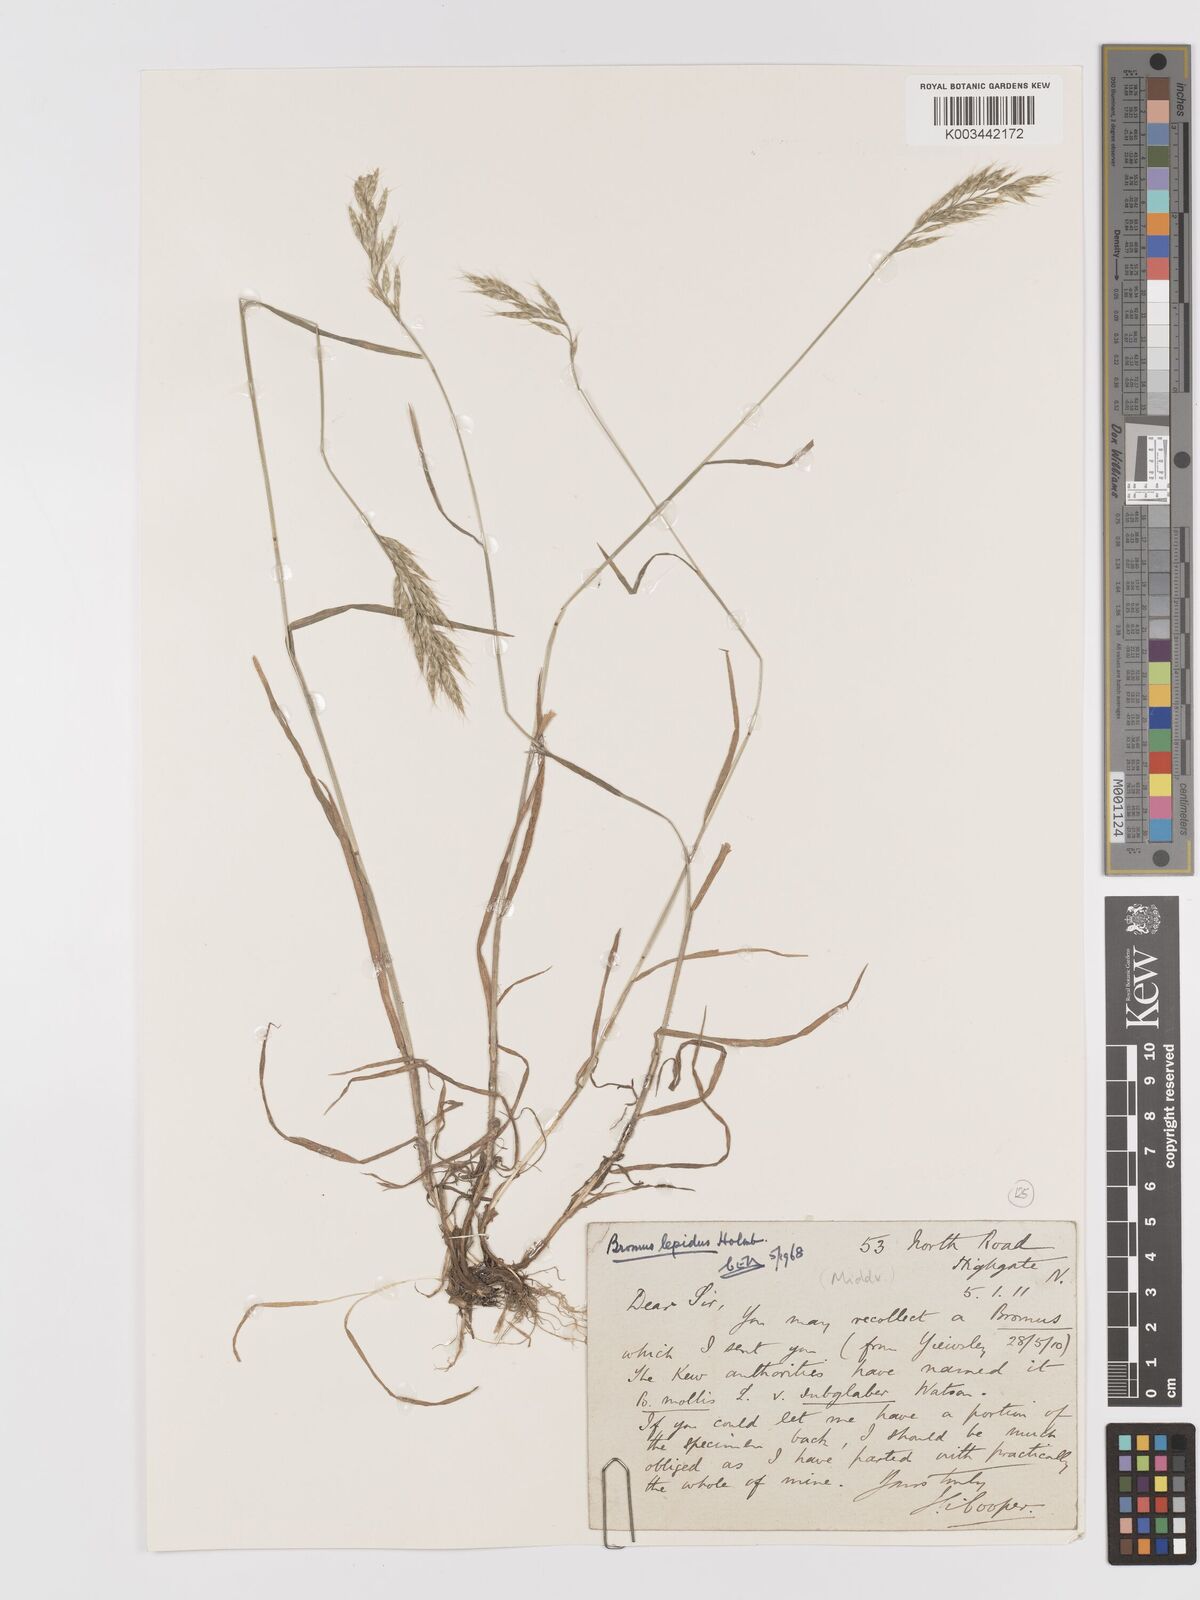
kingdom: Plantae
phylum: Tracheophyta
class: Liliopsida
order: Poales
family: Poaceae
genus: Bromus
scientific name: Bromus lepidus
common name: Slender soft-brome
